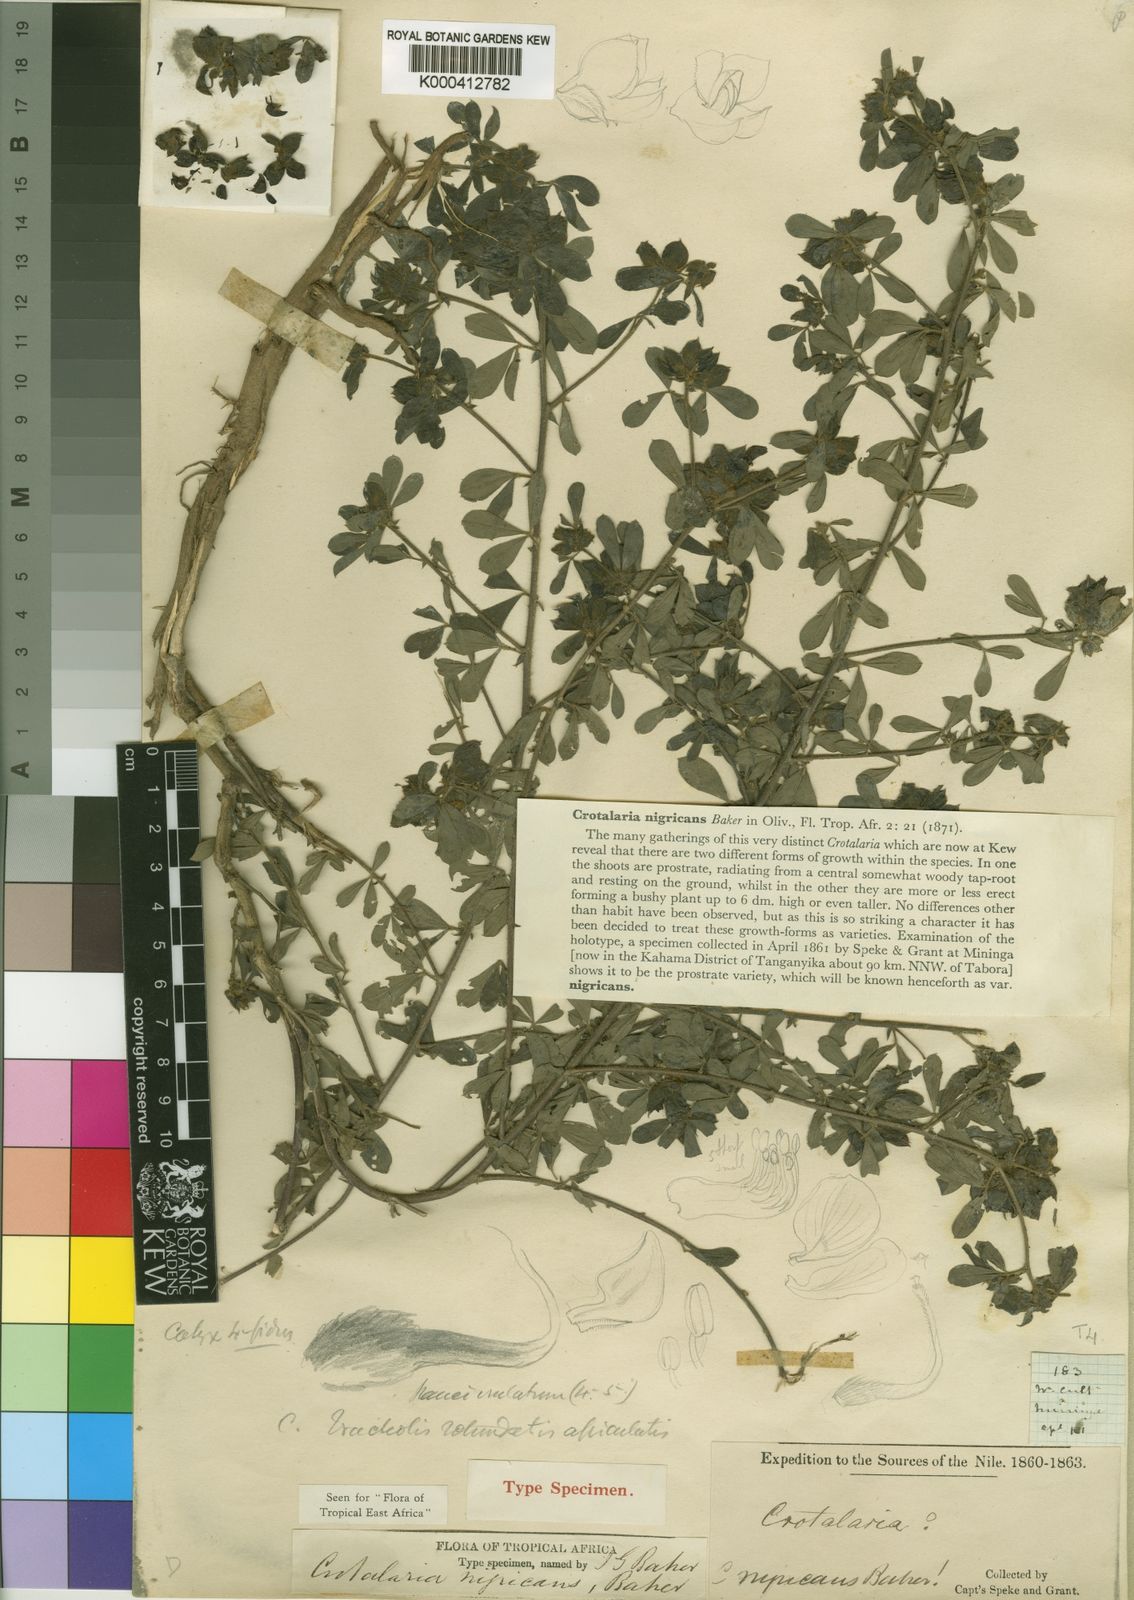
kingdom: Plantae
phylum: Tracheophyta
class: Magnoliopsida
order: Fabales
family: Fabaceae
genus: Crotalaria
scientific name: Crotalaria nigricans
